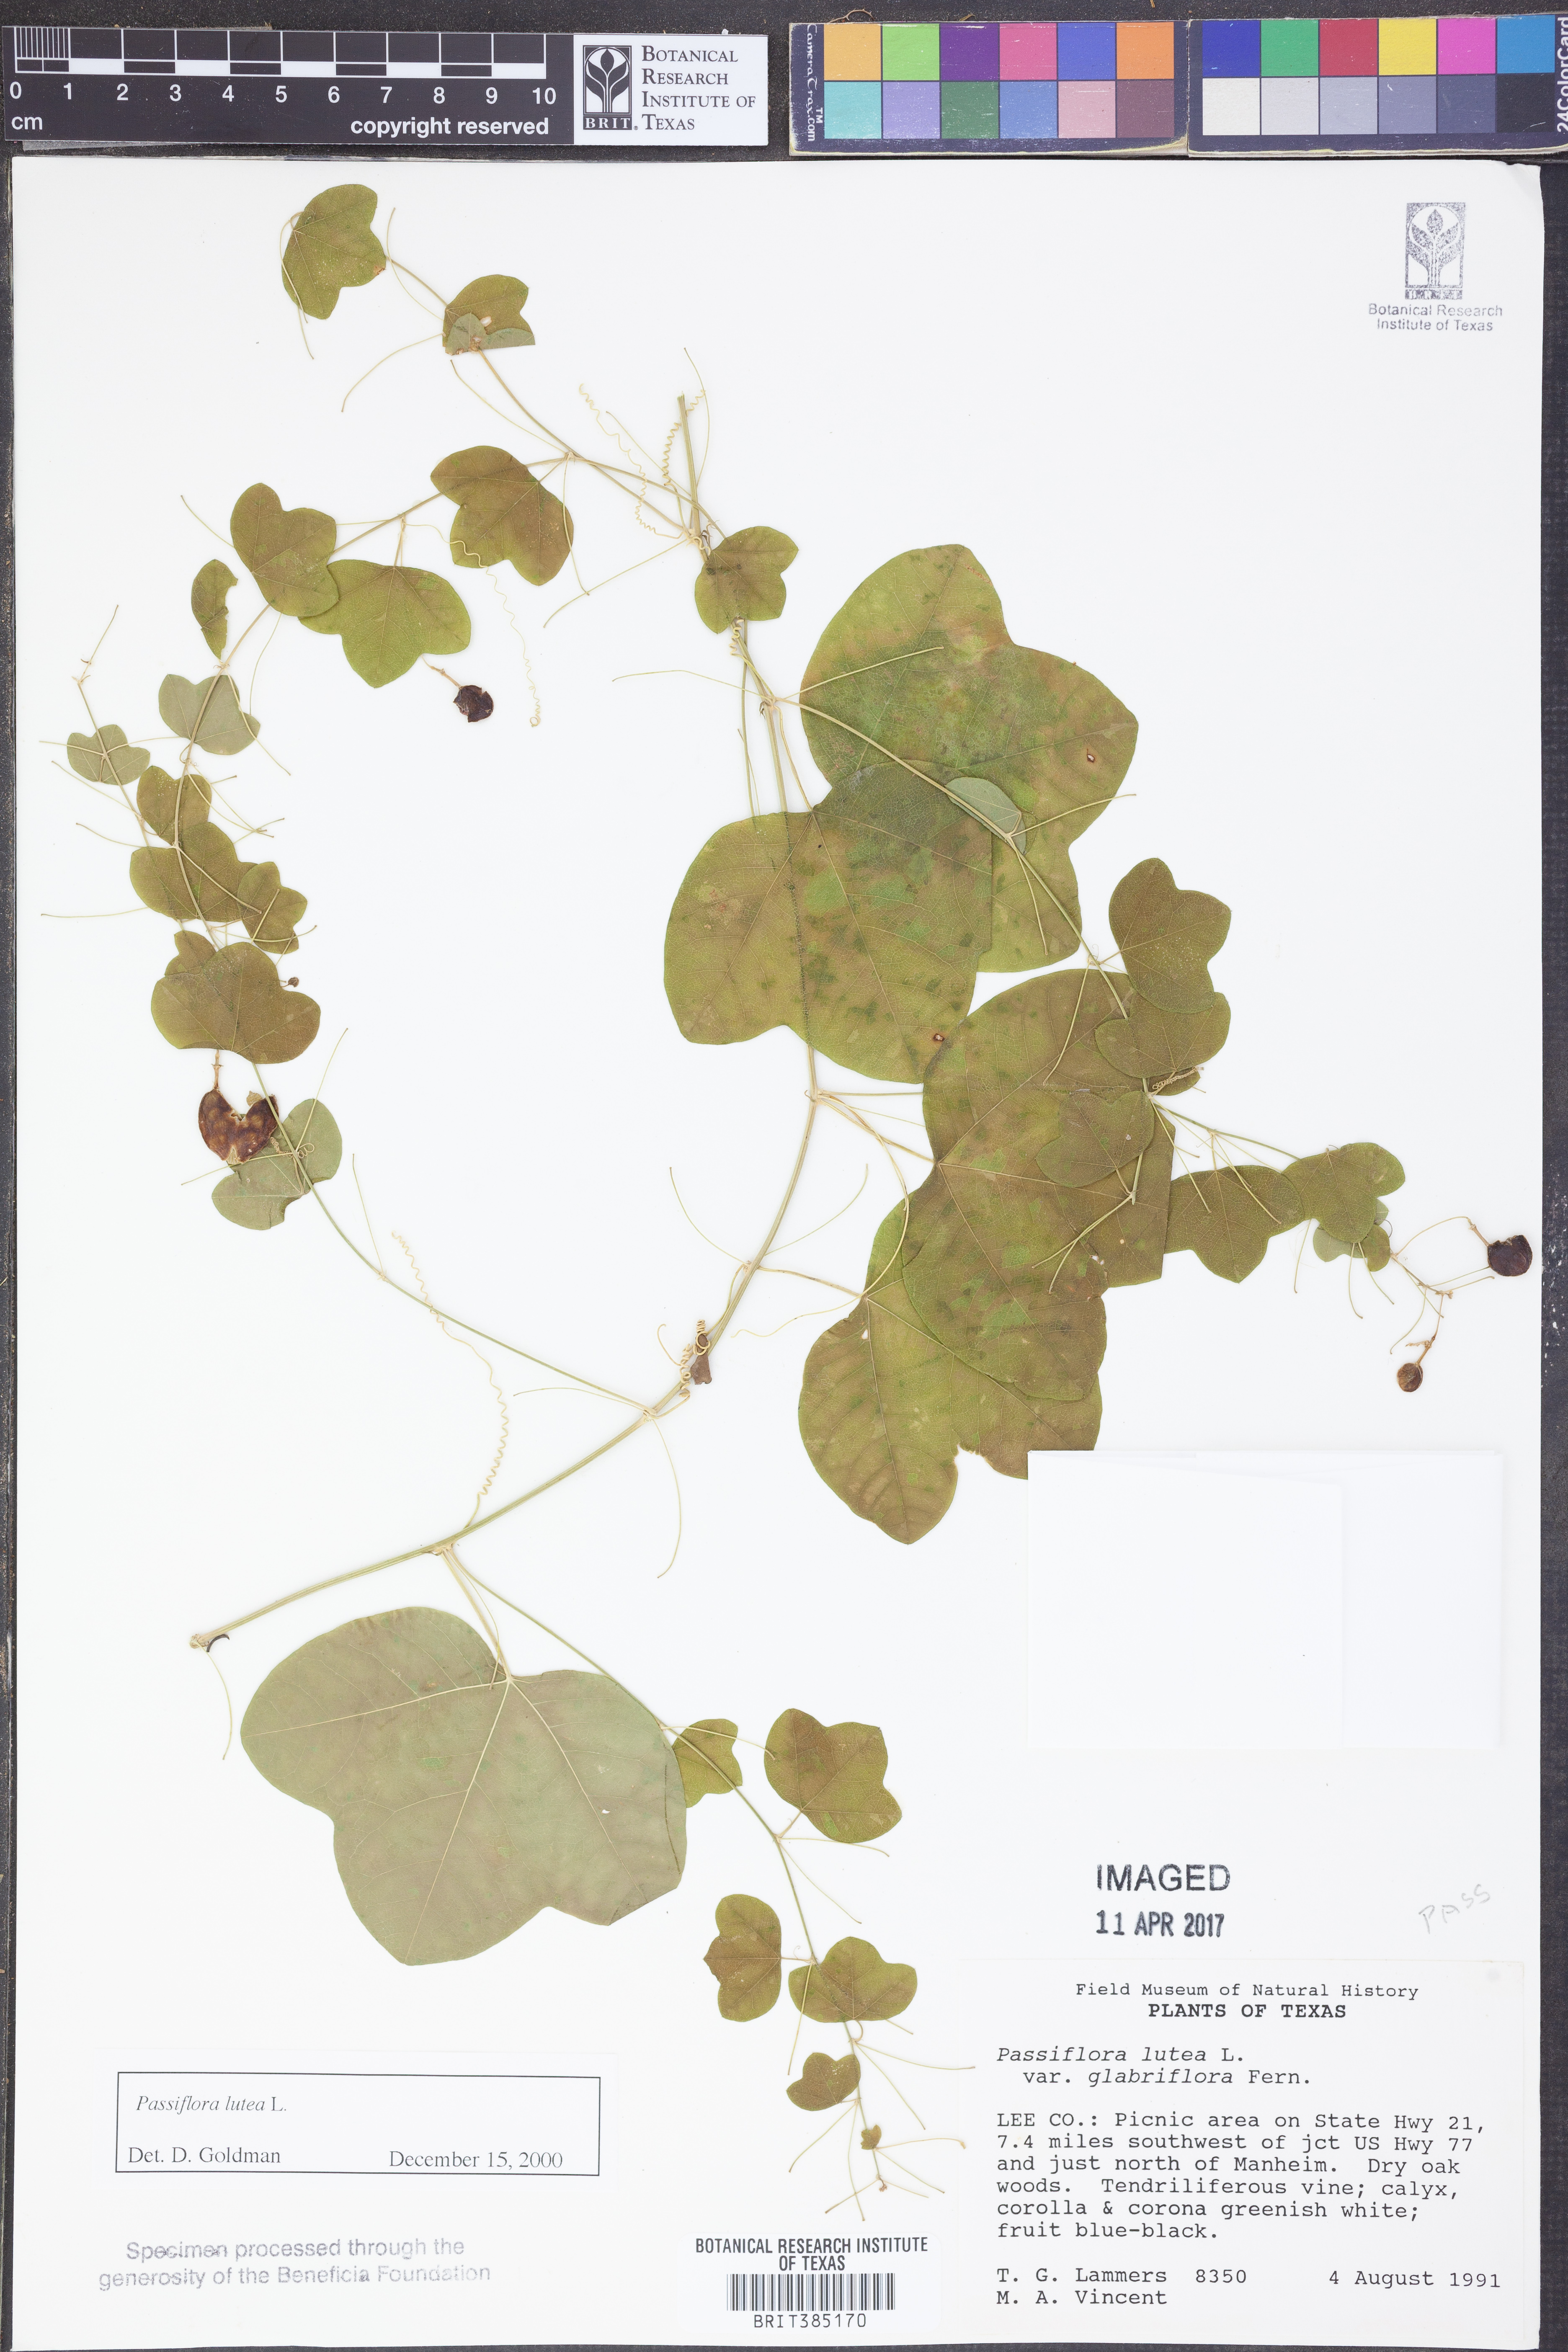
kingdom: Plantae
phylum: Tracheophyta
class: Magnoliopsida
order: Malpighiales
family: Passifloraceae
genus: Passiflora
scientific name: Passiflora lutea
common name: Yellow passionflower
